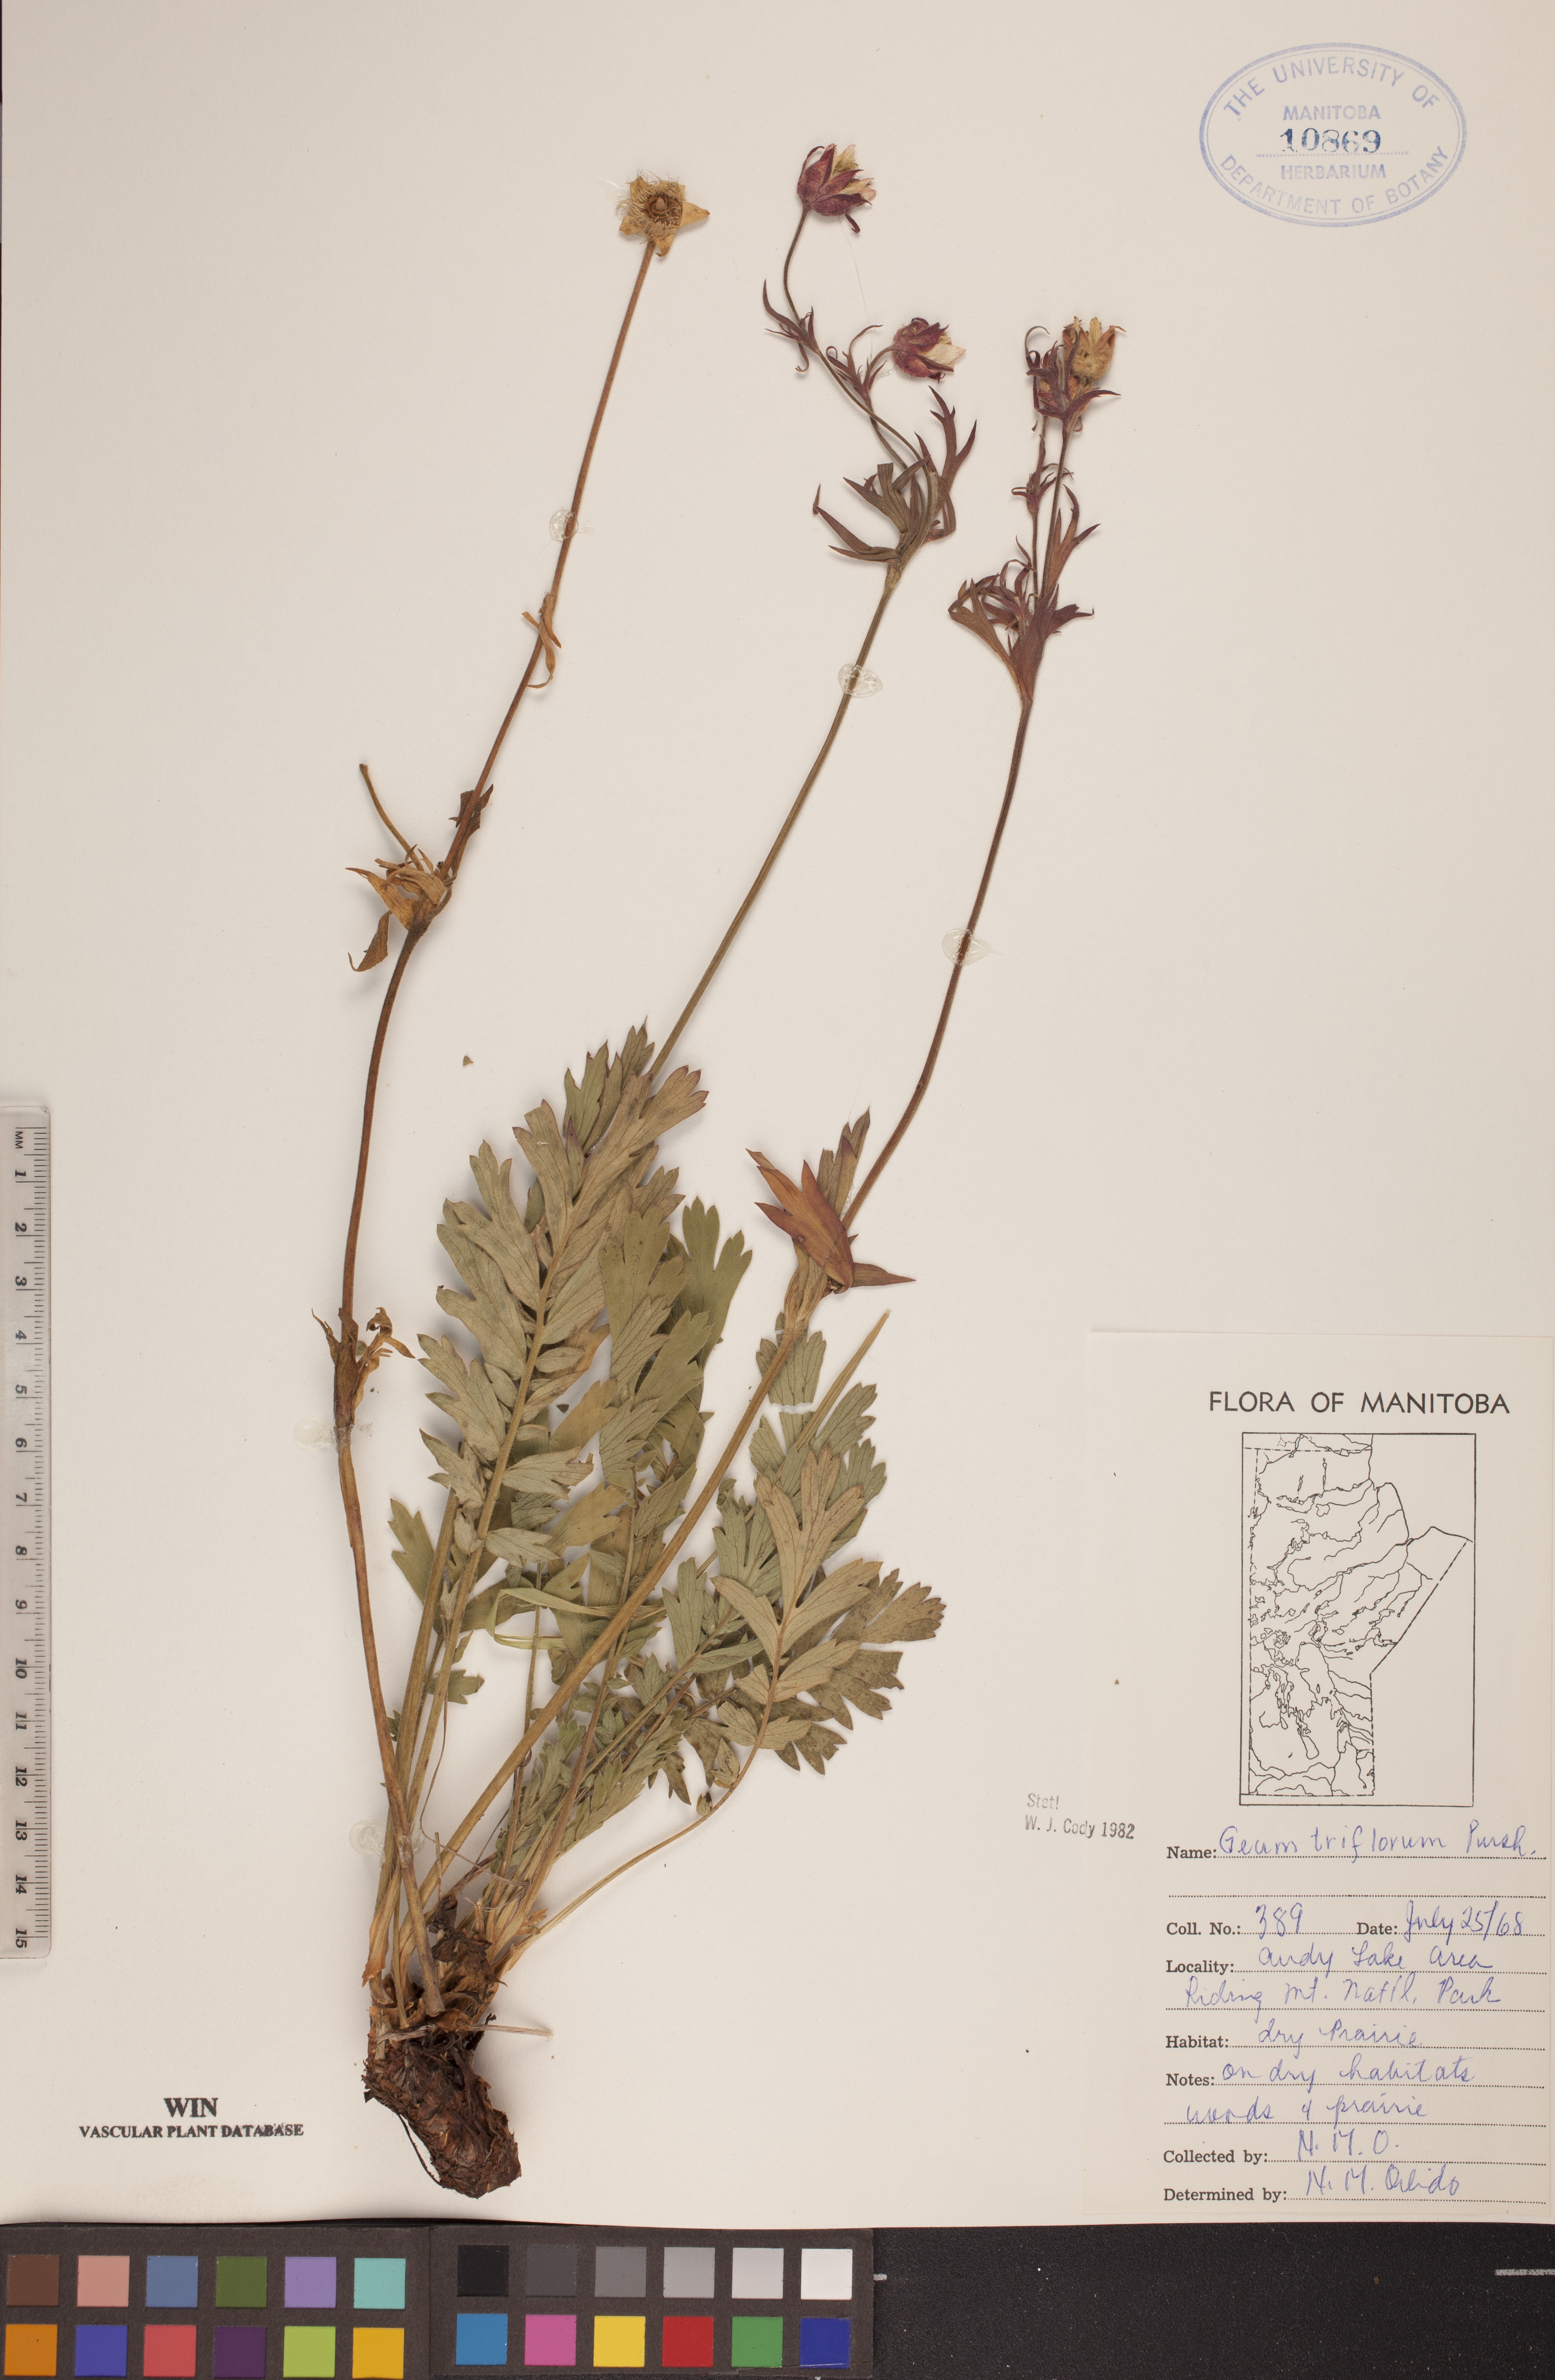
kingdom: Plantae
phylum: Tracheophyta
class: Magnoliopsida
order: Rosales
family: Rosaceae
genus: Geum
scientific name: Geum triflorum
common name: Old man's whiskers
